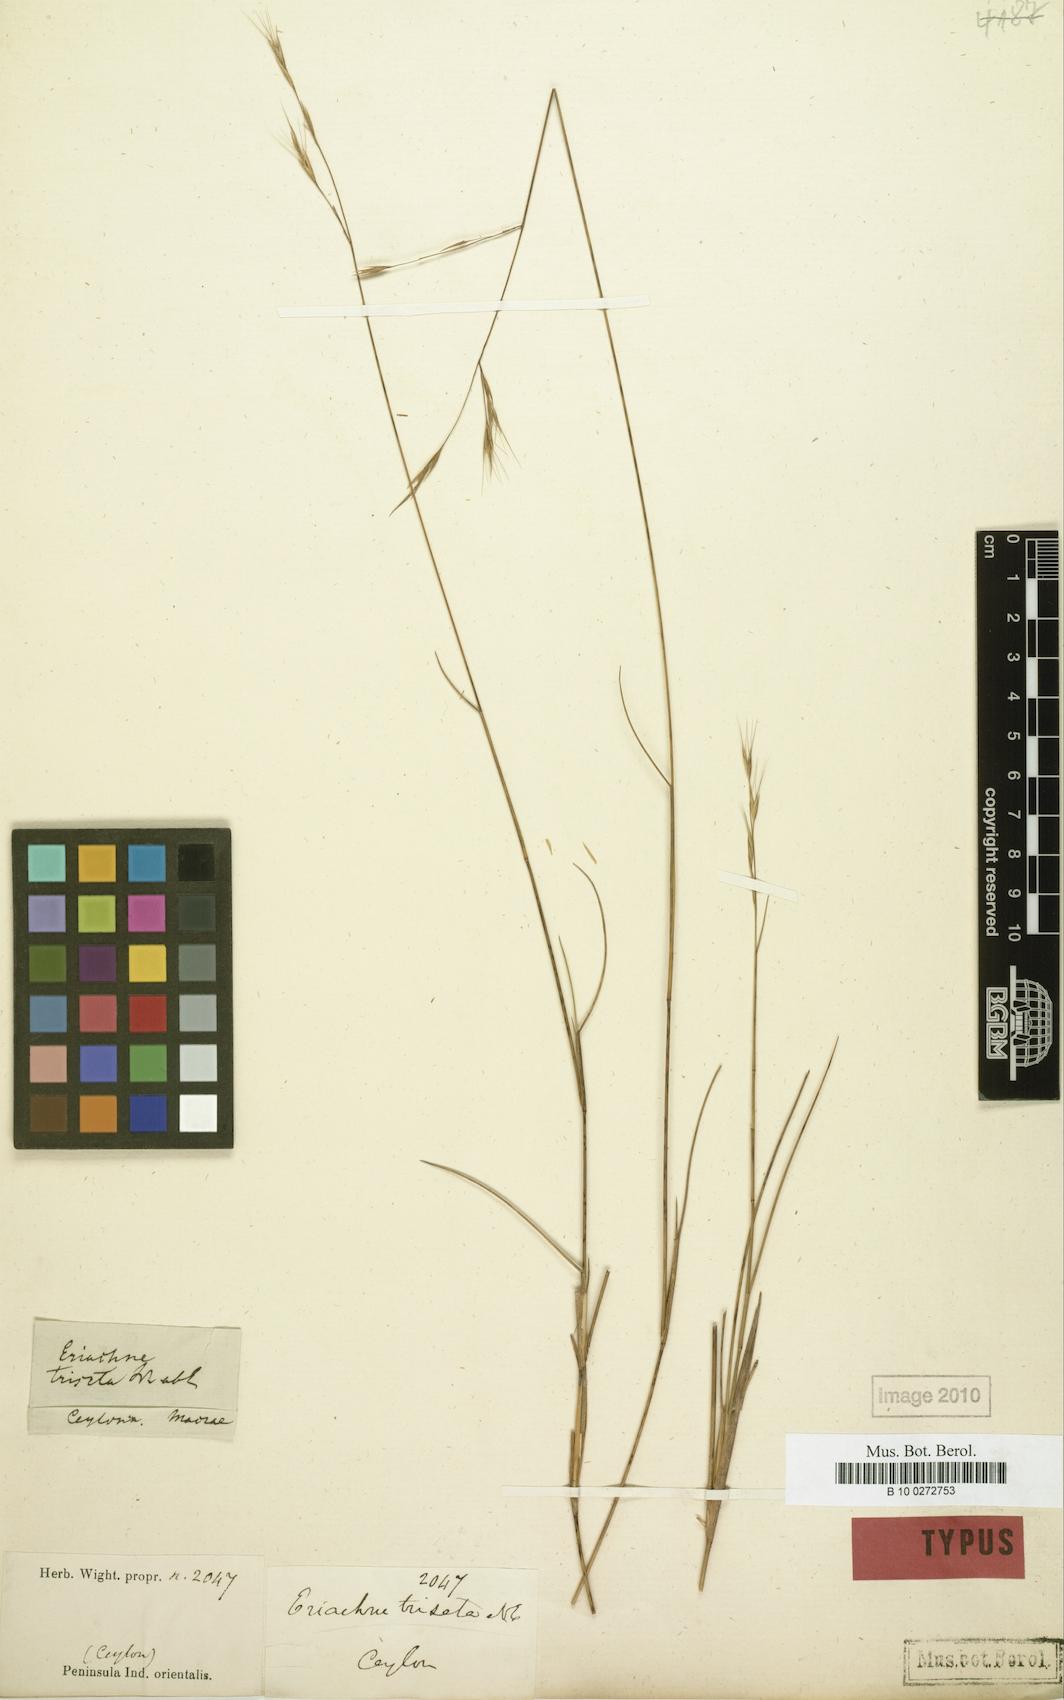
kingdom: Plantae
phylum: Tracheophyta
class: Liliopsida
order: Poales
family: Poaceae
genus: Eriachne
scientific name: Eriachne triseta
